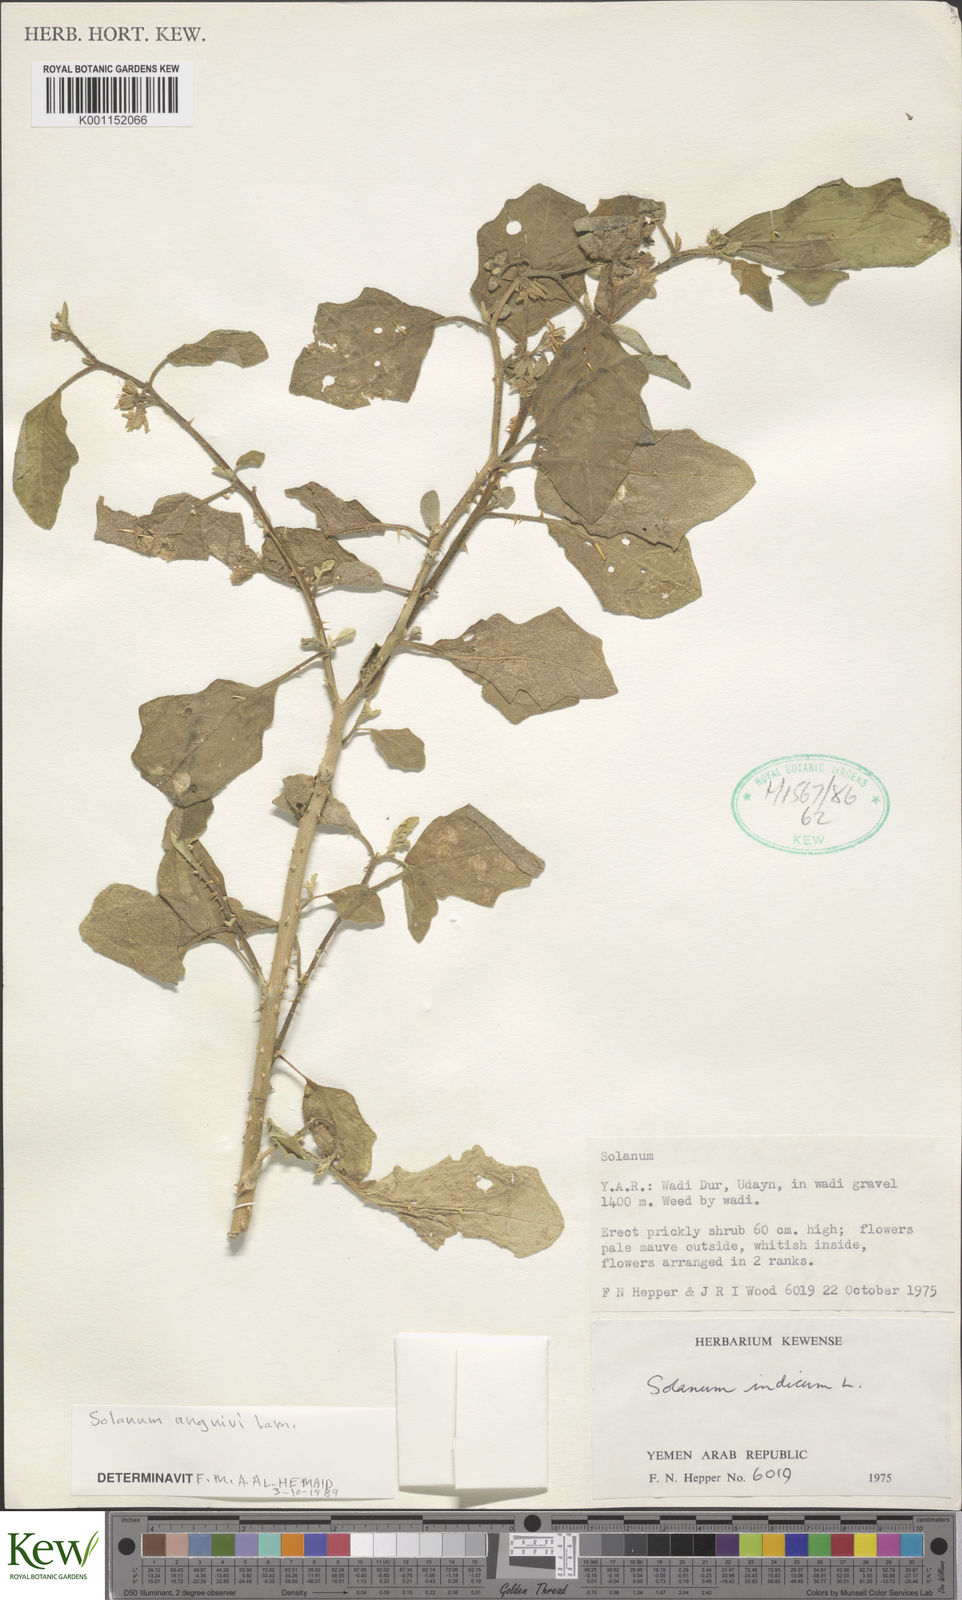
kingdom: Plantae
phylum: Tracheophyta
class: Magnoliopsida
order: Solanales
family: Solanaceae
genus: Solanum
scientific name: Solanum anguivi
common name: Forest bitterberry
